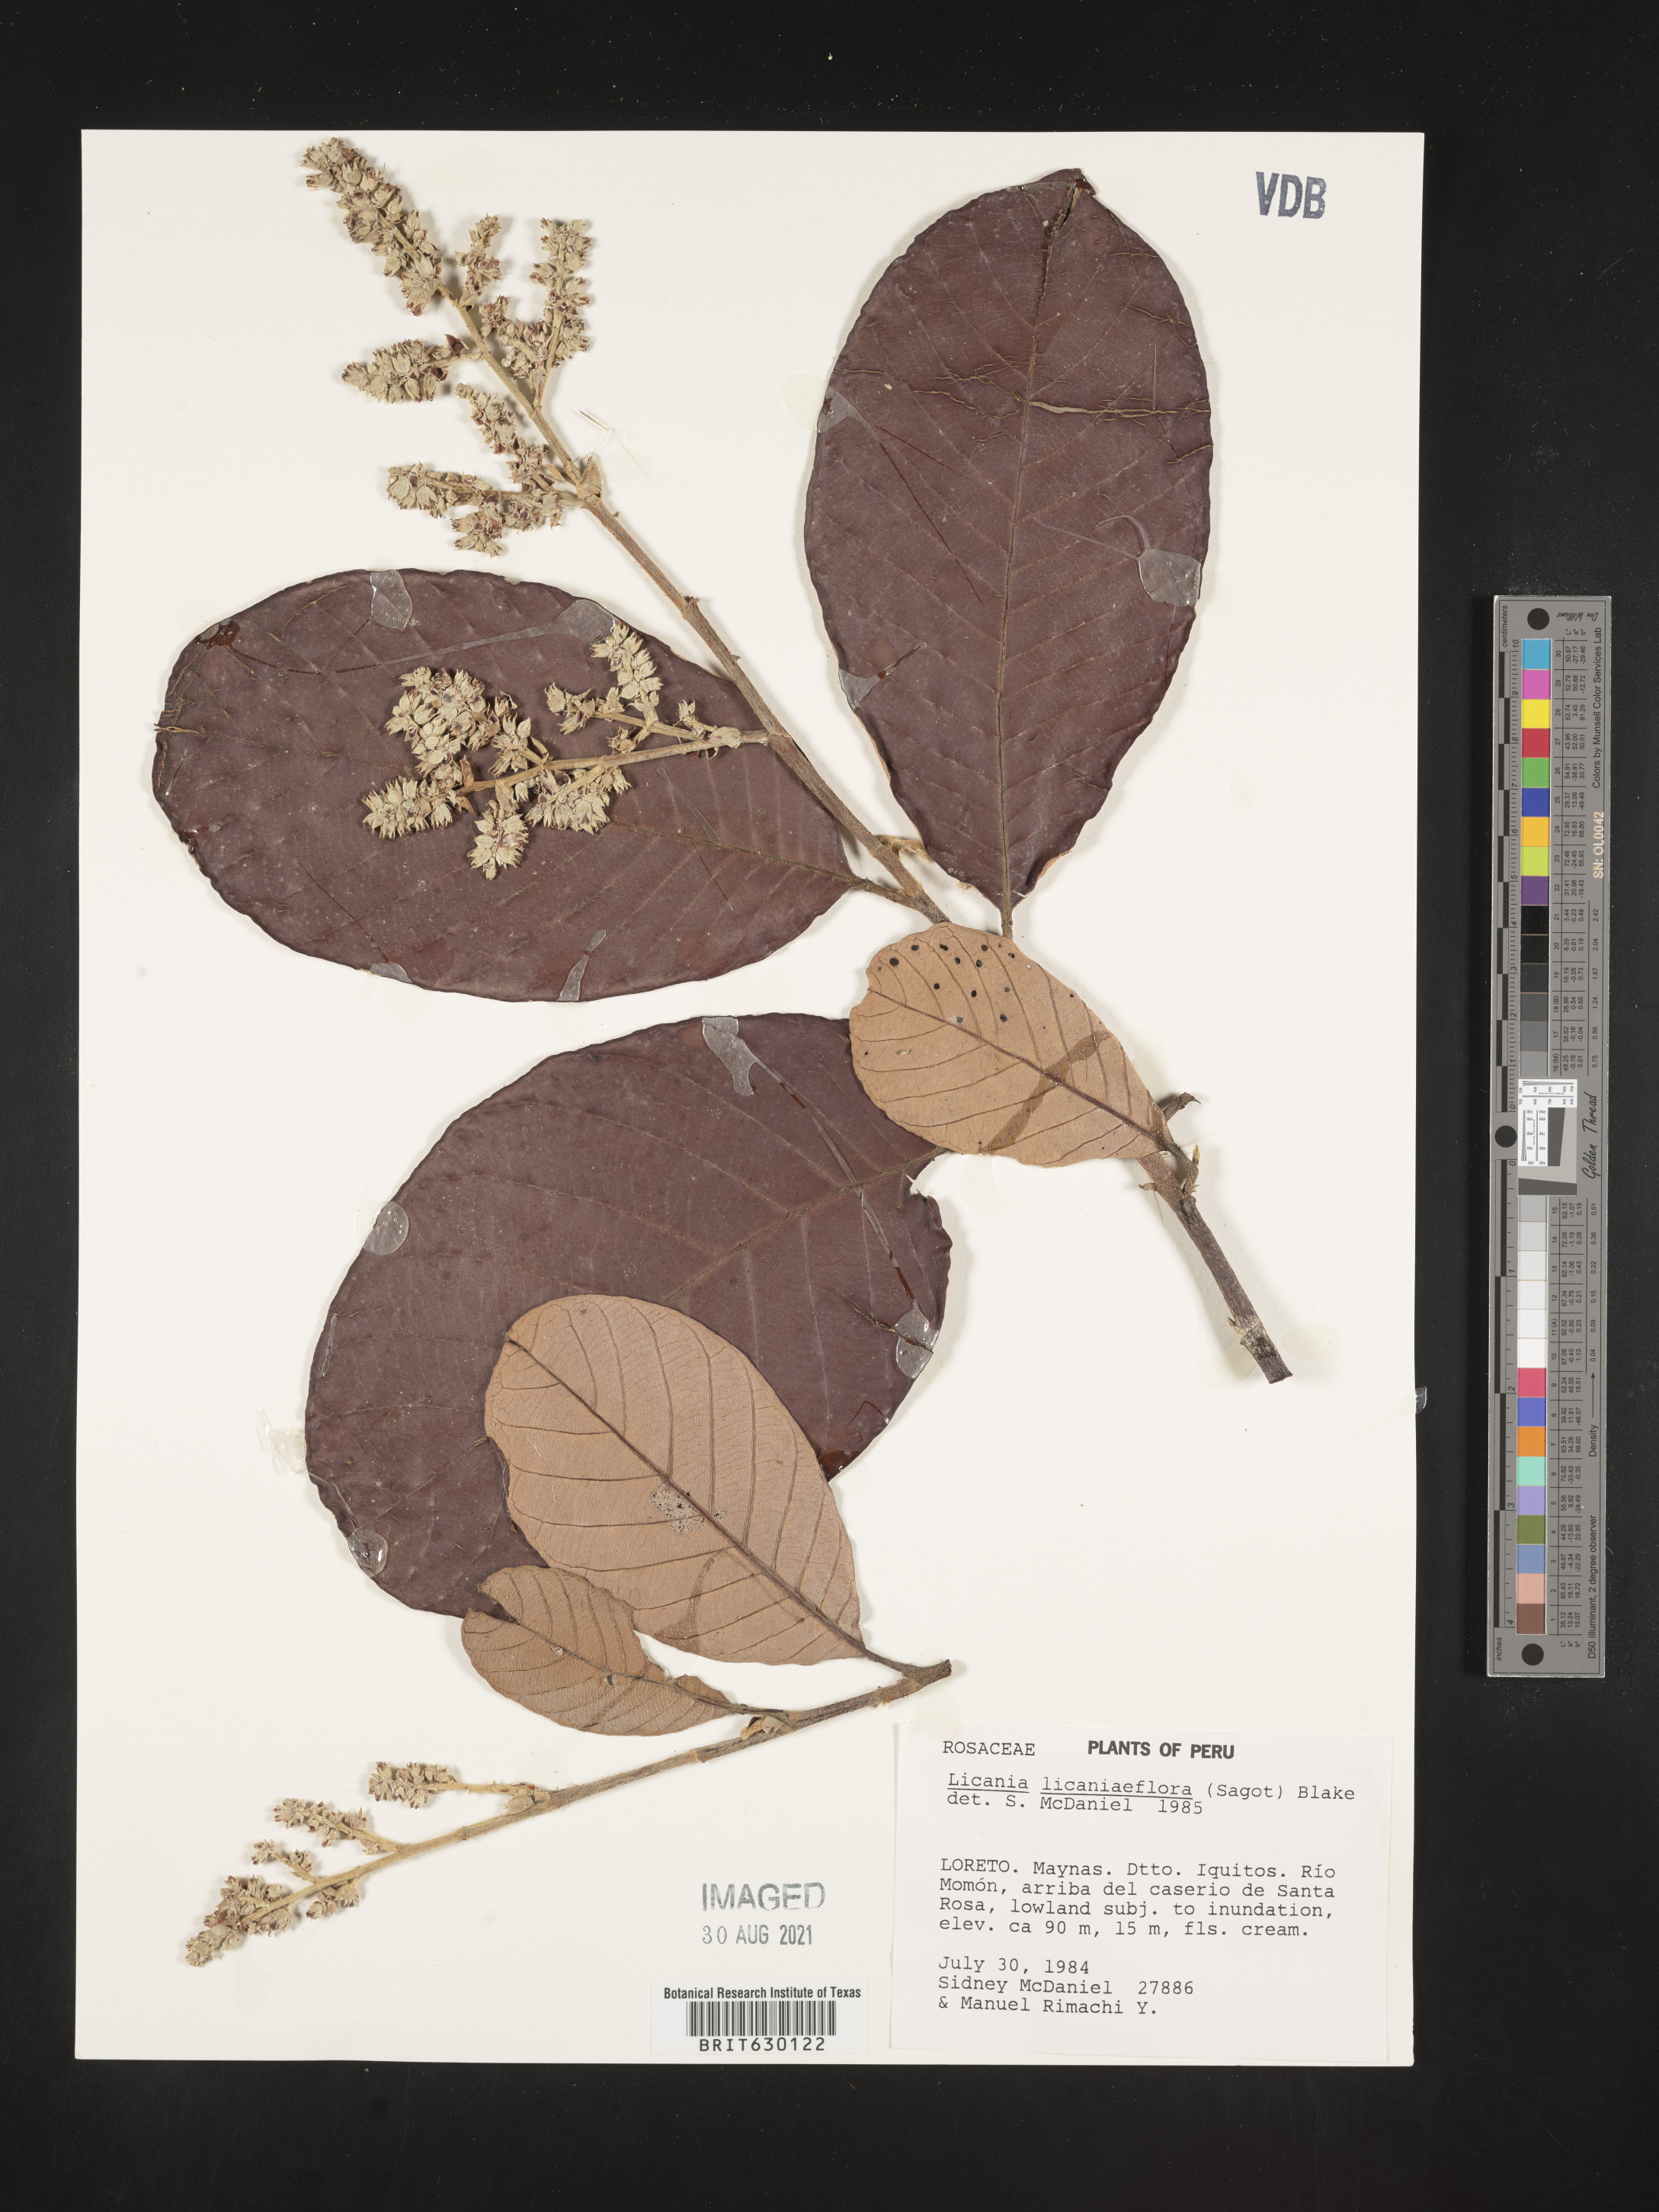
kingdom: Plantae
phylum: Tracheophyta
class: Magnoliopsida
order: Malpighiales
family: Chrysobalanaceae
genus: Parinariopsis
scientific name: Parinariopsis licaniiflora
